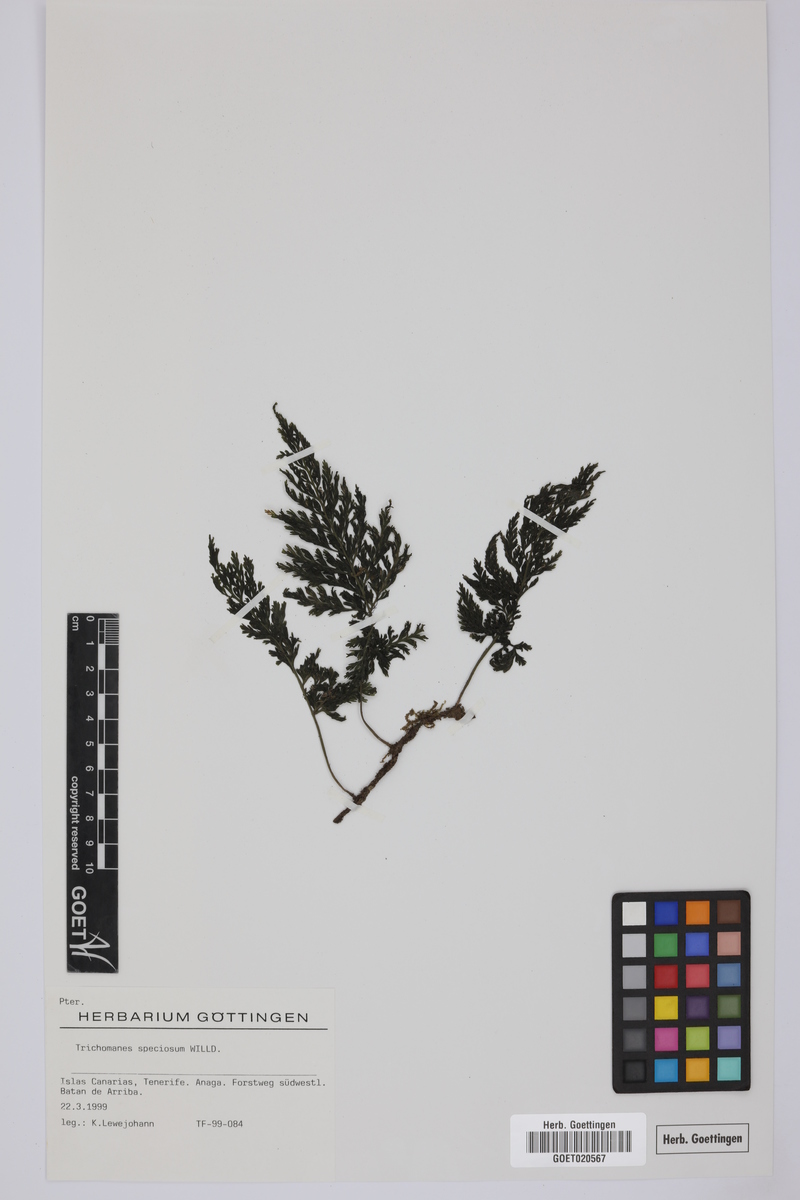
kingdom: Plantae
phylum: Tracheophyta
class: Polypodiopsida
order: Hymenophyllales
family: Hymenophyllaceae
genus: Vandenboschia
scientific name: Vandenboschia speciosa
